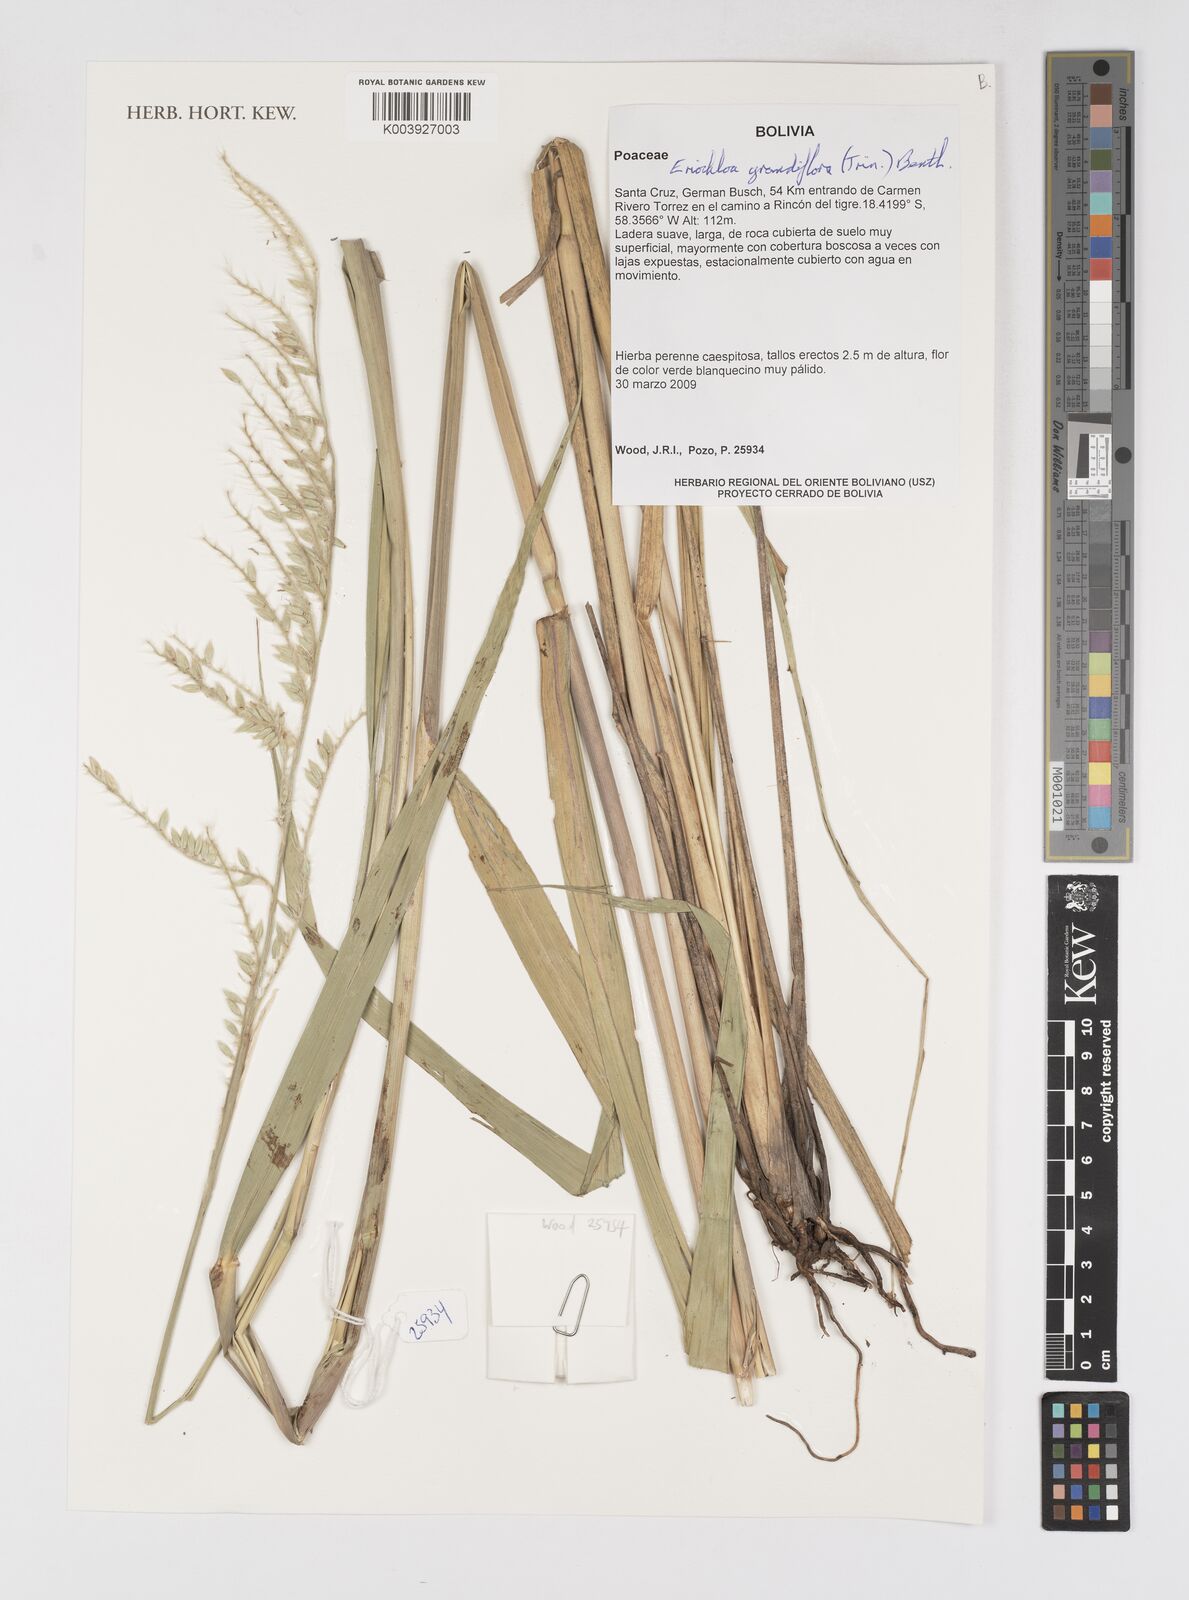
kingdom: Plantae
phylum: Tracheophyta
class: Liliopsida
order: Poales
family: Poaceae
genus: Eriochloa
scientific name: Eriochloa grandiflora
